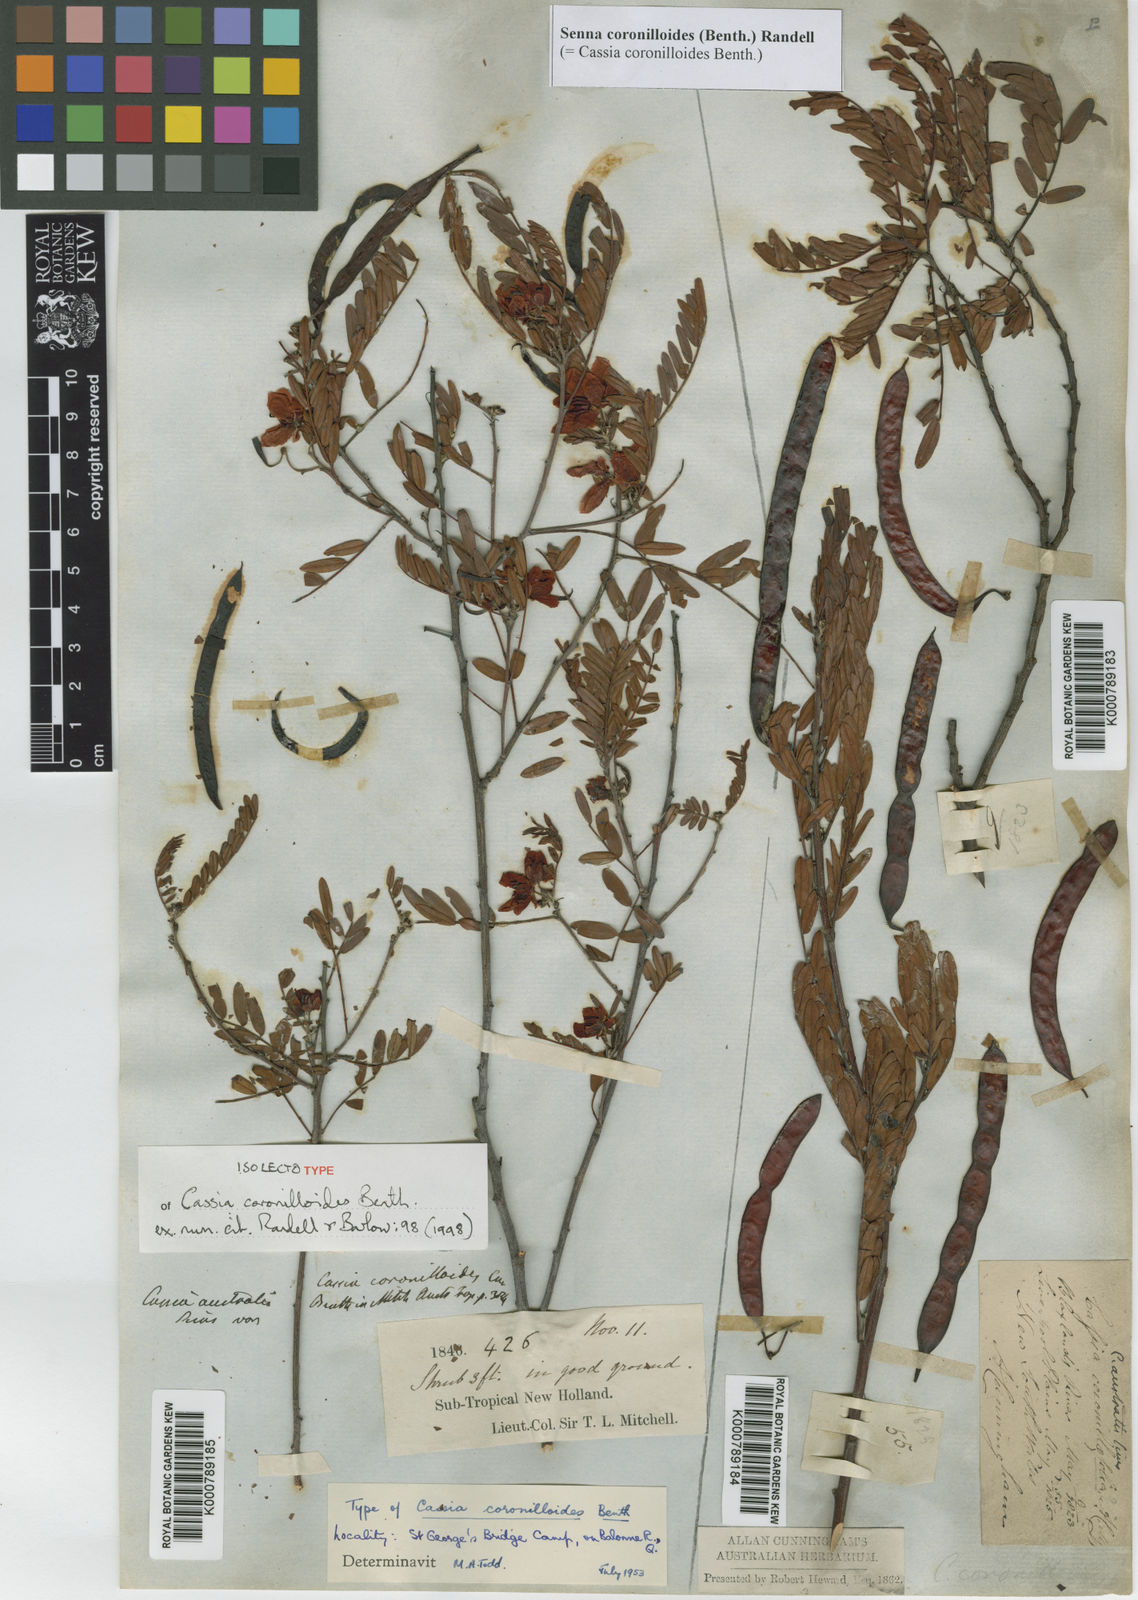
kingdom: Plantae
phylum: Tracheophyta
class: Magnoliopsida
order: Fabales
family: Fabaceae
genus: Senna
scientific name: Senna coronilloides
